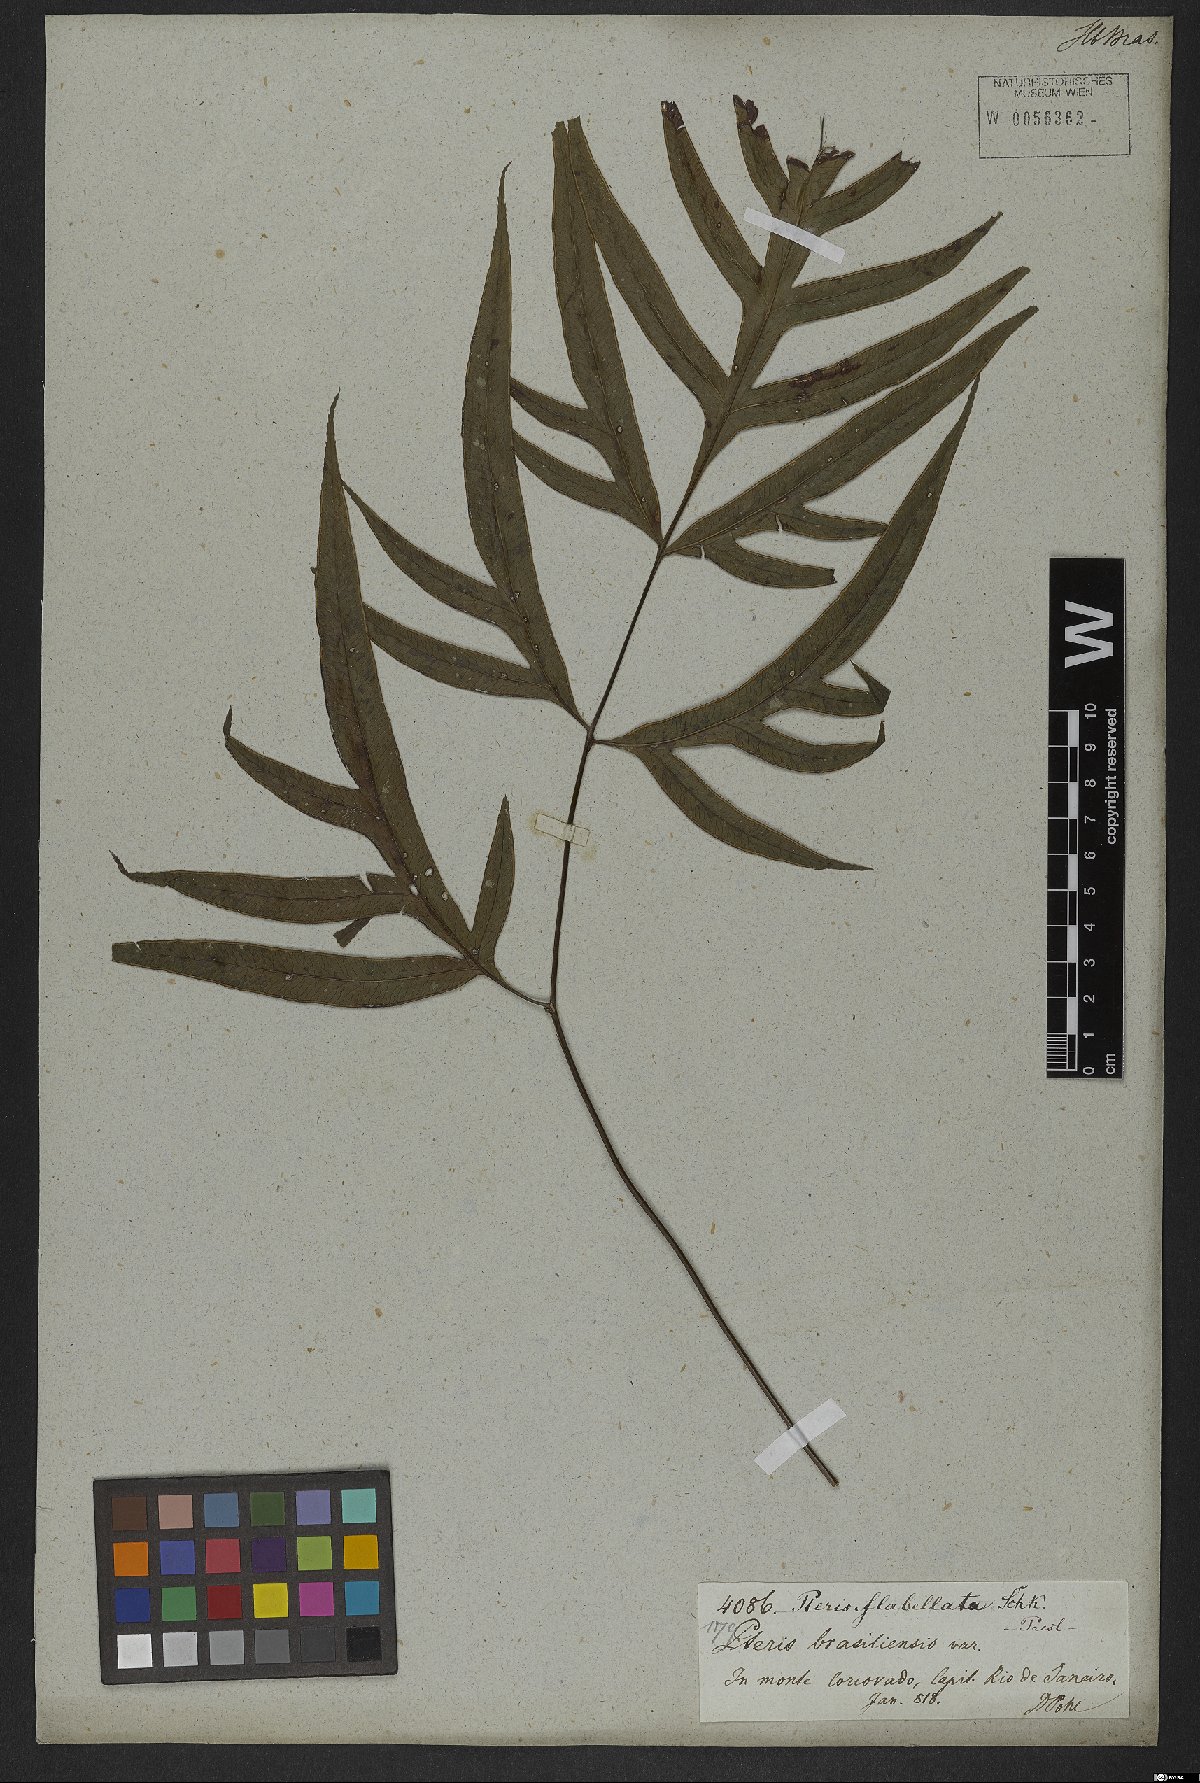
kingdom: Plantae
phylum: Tracheophyta
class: Polypodiopsida
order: Polypodiales
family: Pteridaceae
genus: Pteris
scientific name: Pteris denticulata
